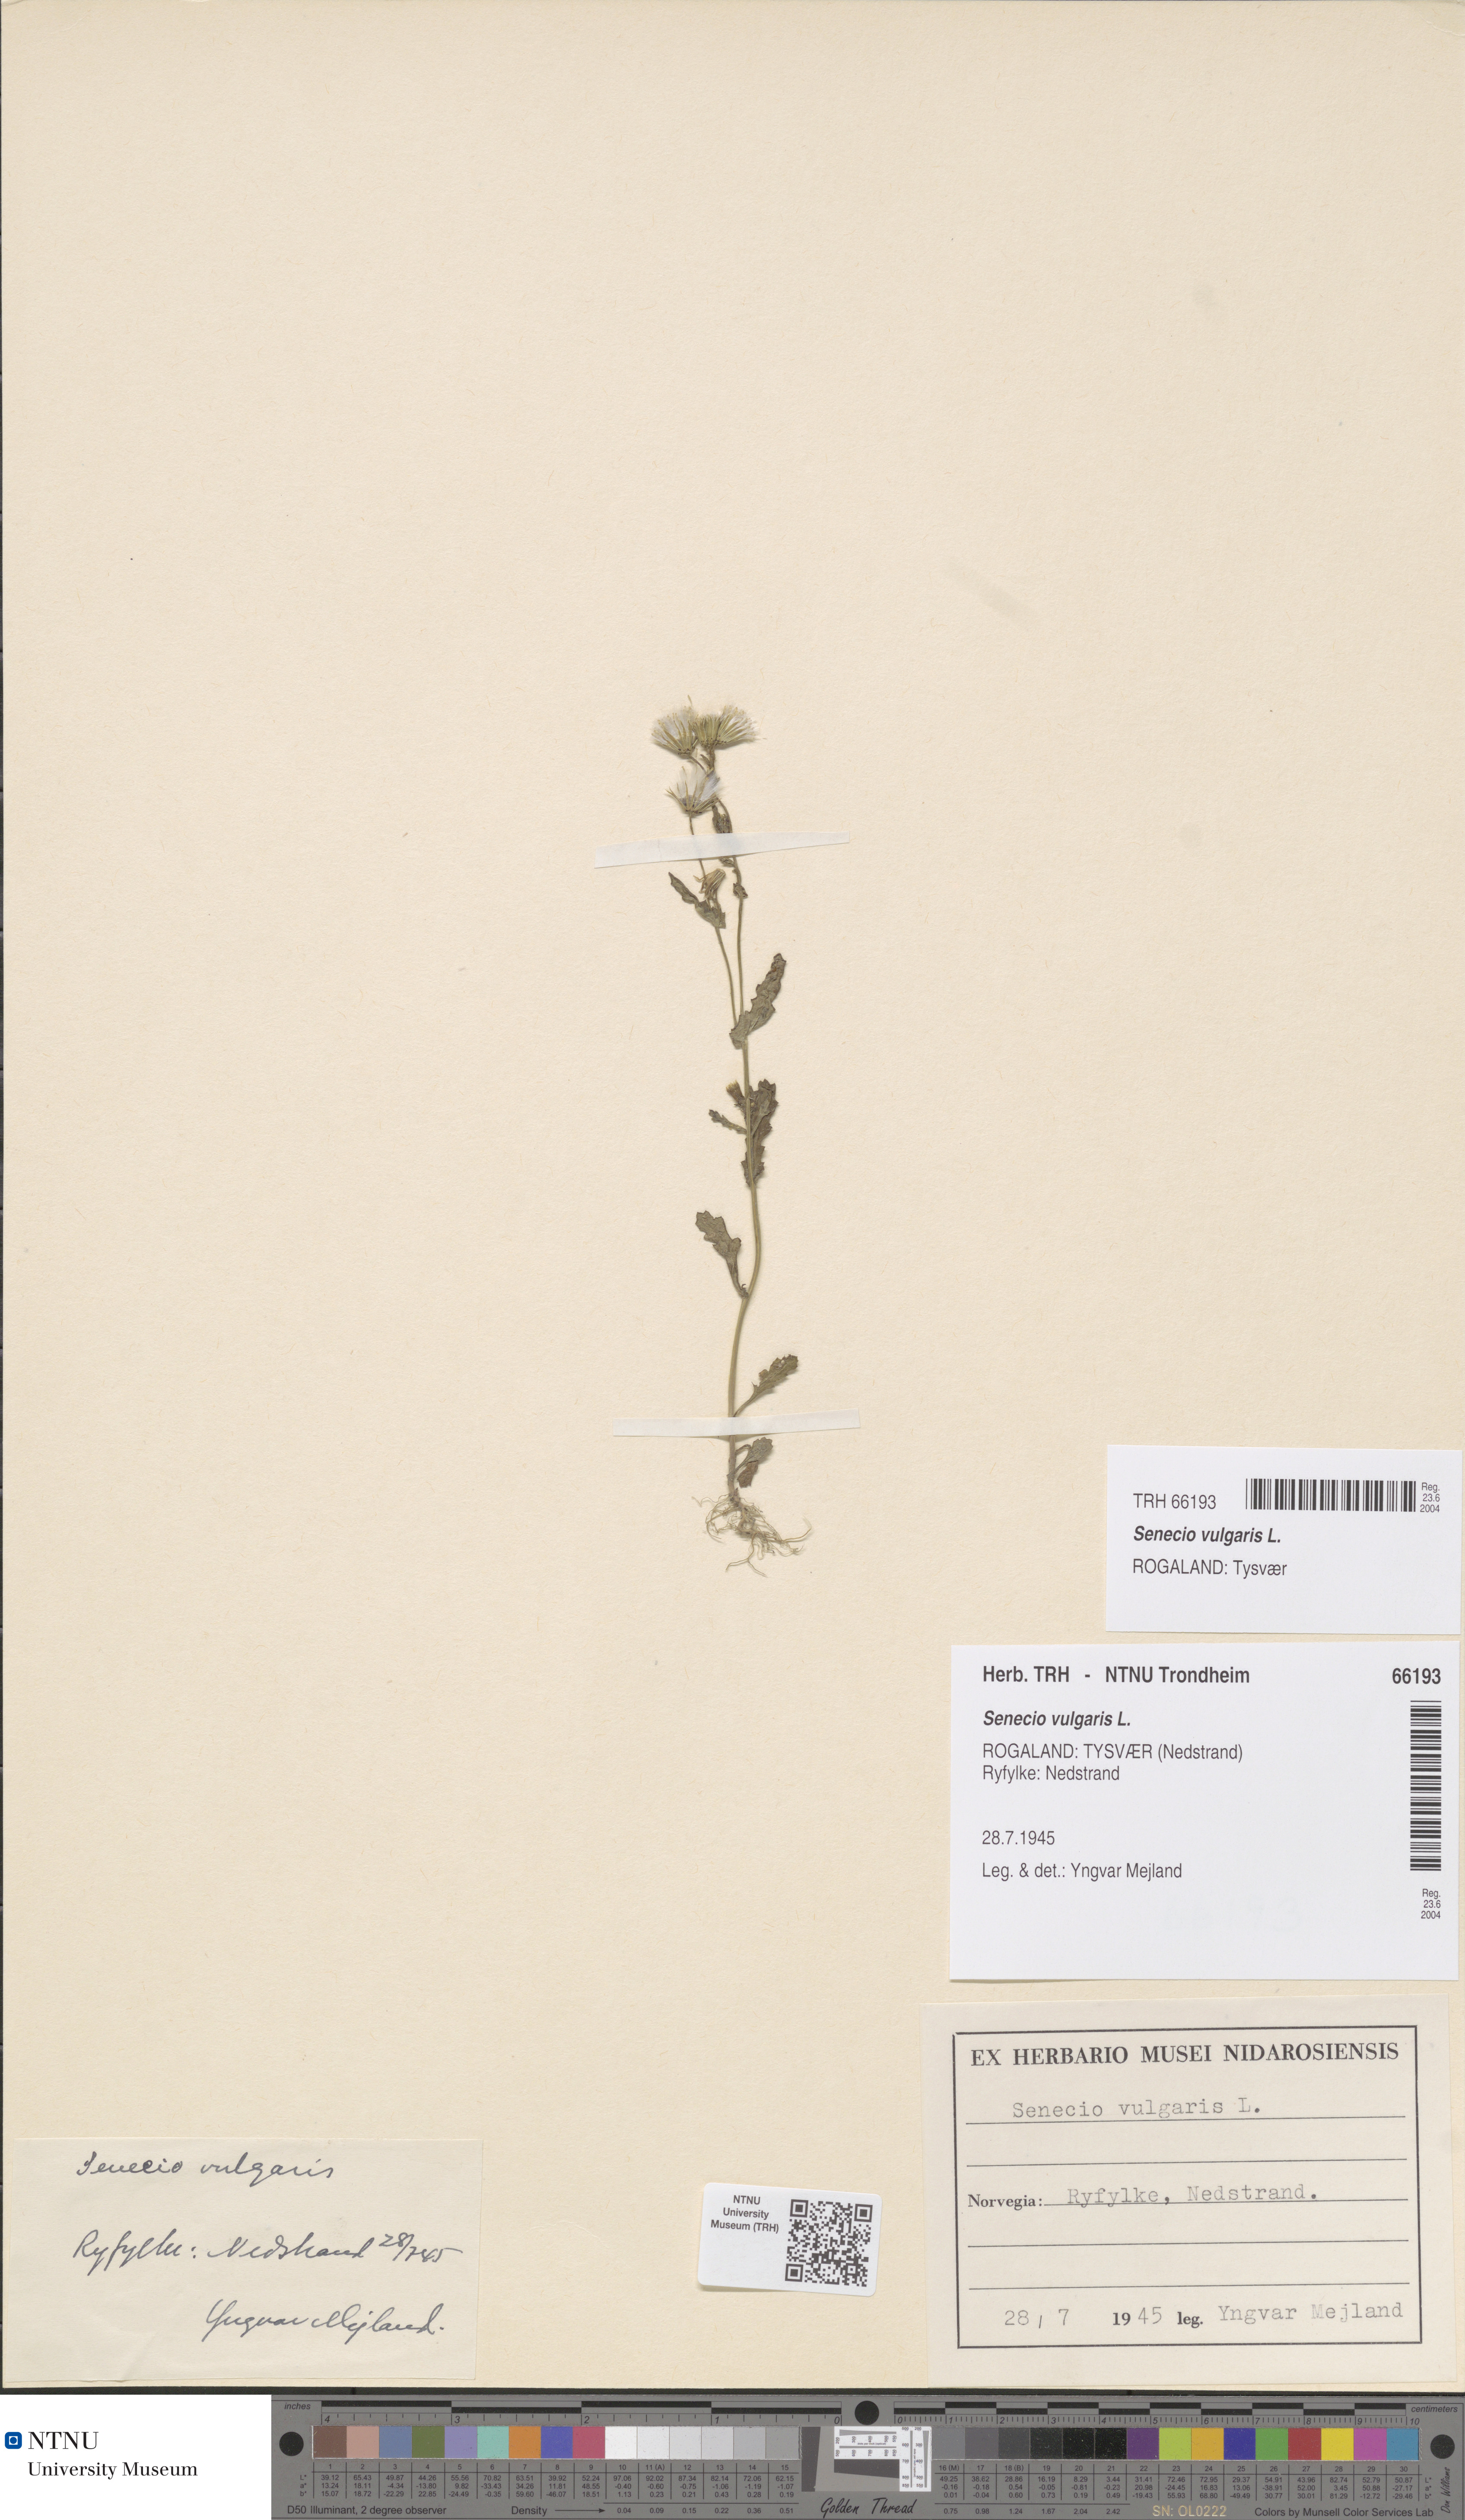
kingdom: Plantae
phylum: Tracheophyta
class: Magnoliopsida
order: Asterales
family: Asteraceae
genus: Senecio
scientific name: Senecio vulgaris
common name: Old-man-in-the-spring
